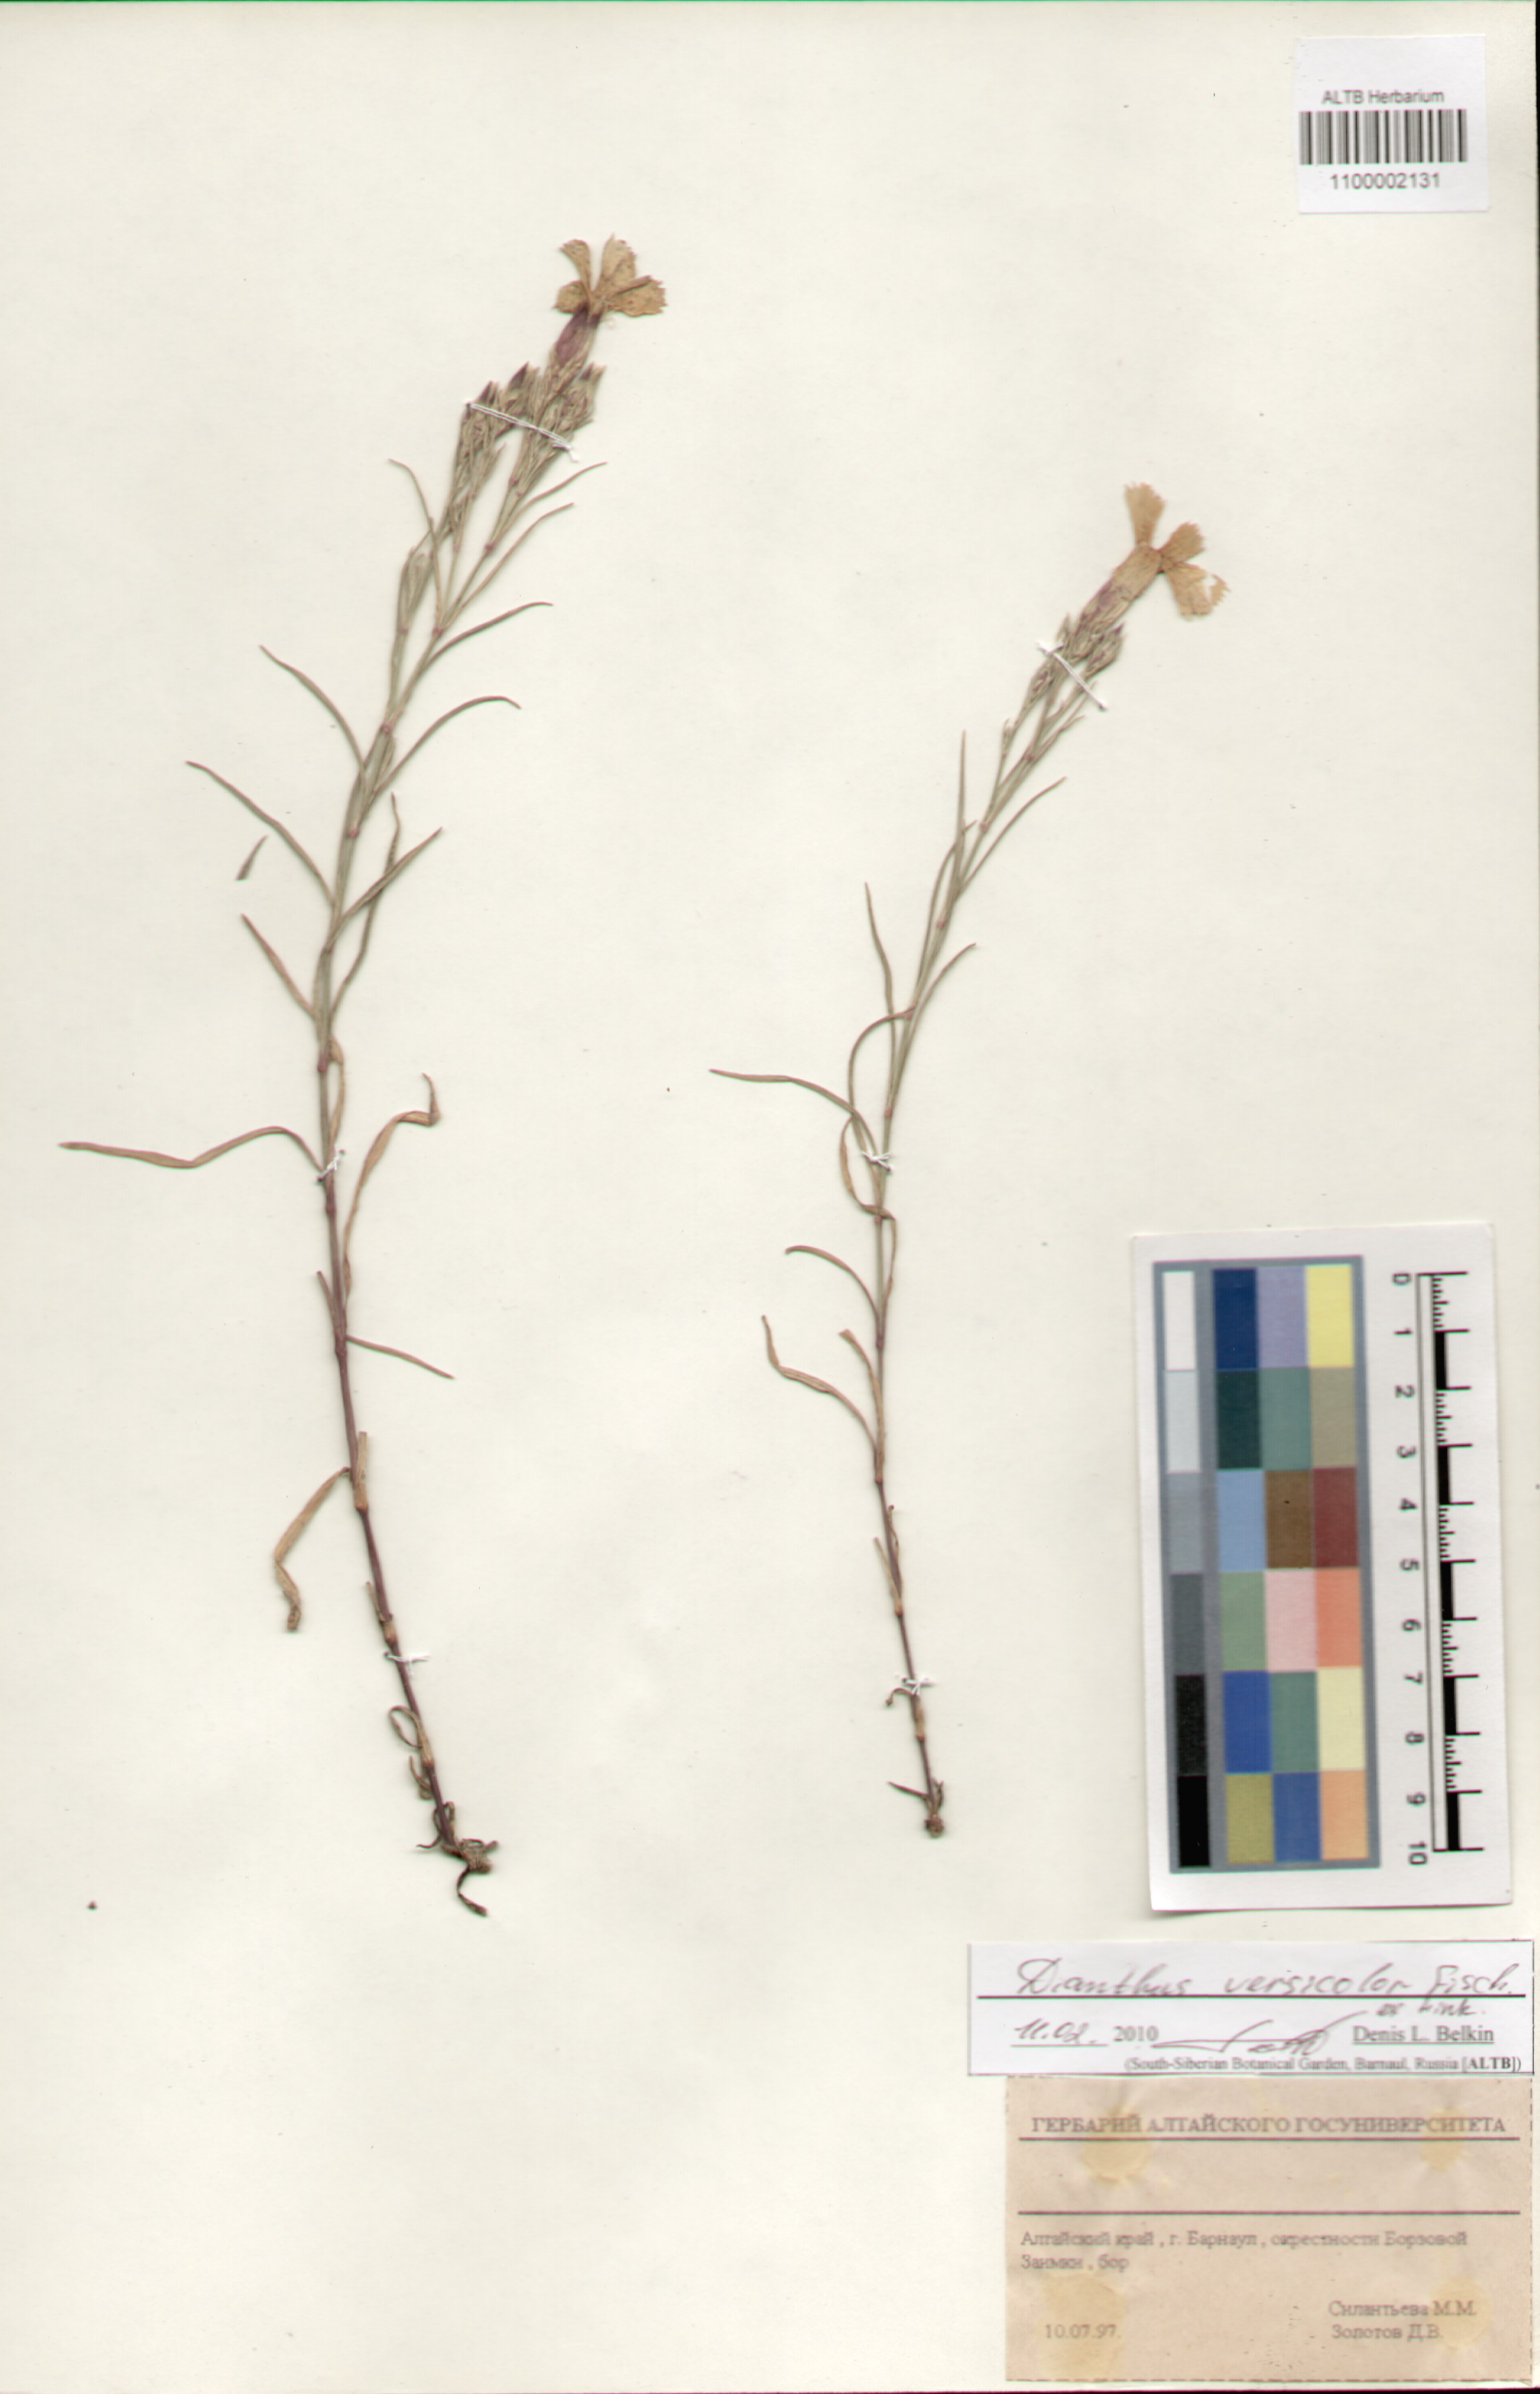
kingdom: Plantae
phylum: Tracheophyta
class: Magnoliopsida
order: Caryophyllales
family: Caryophyllaceae
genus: Dianthus
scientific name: Dianthus chinensis
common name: Rainbow pink
